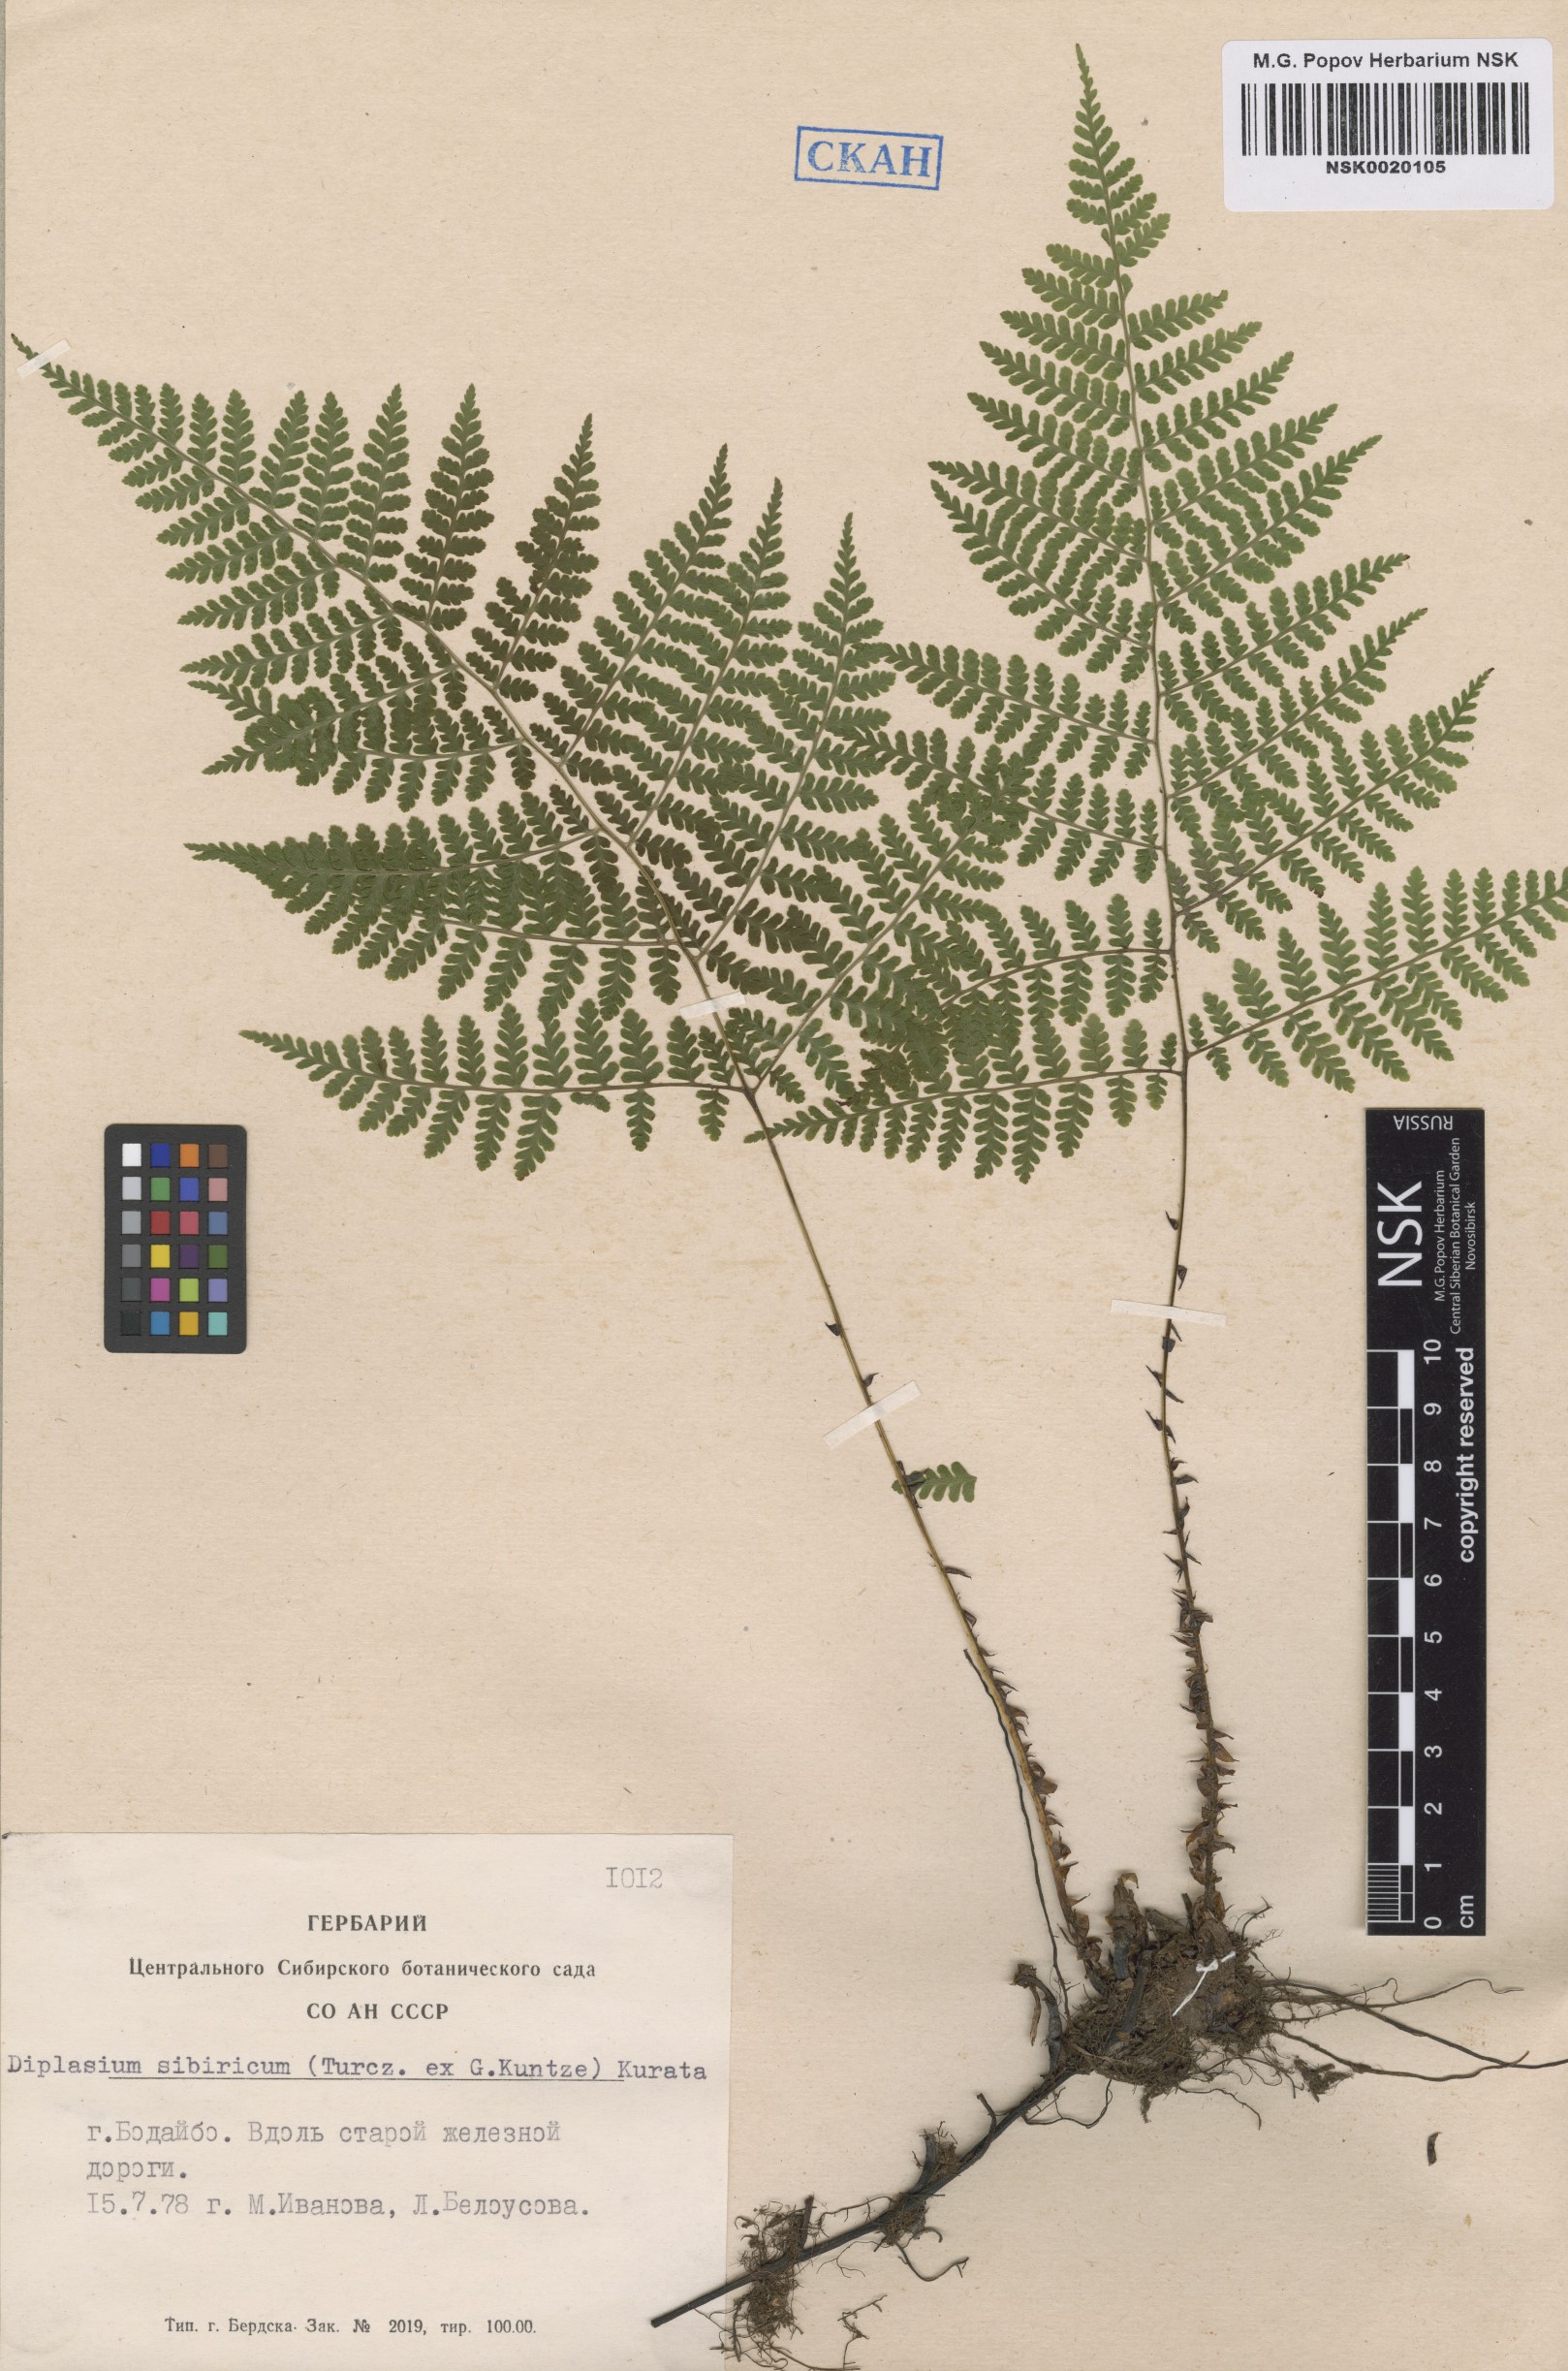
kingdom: Plantae
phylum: Tracheophyta
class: Polypodiopsida
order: Polypodiales
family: Athyriaceae
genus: Diplazium
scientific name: Diplazium sibiricum
